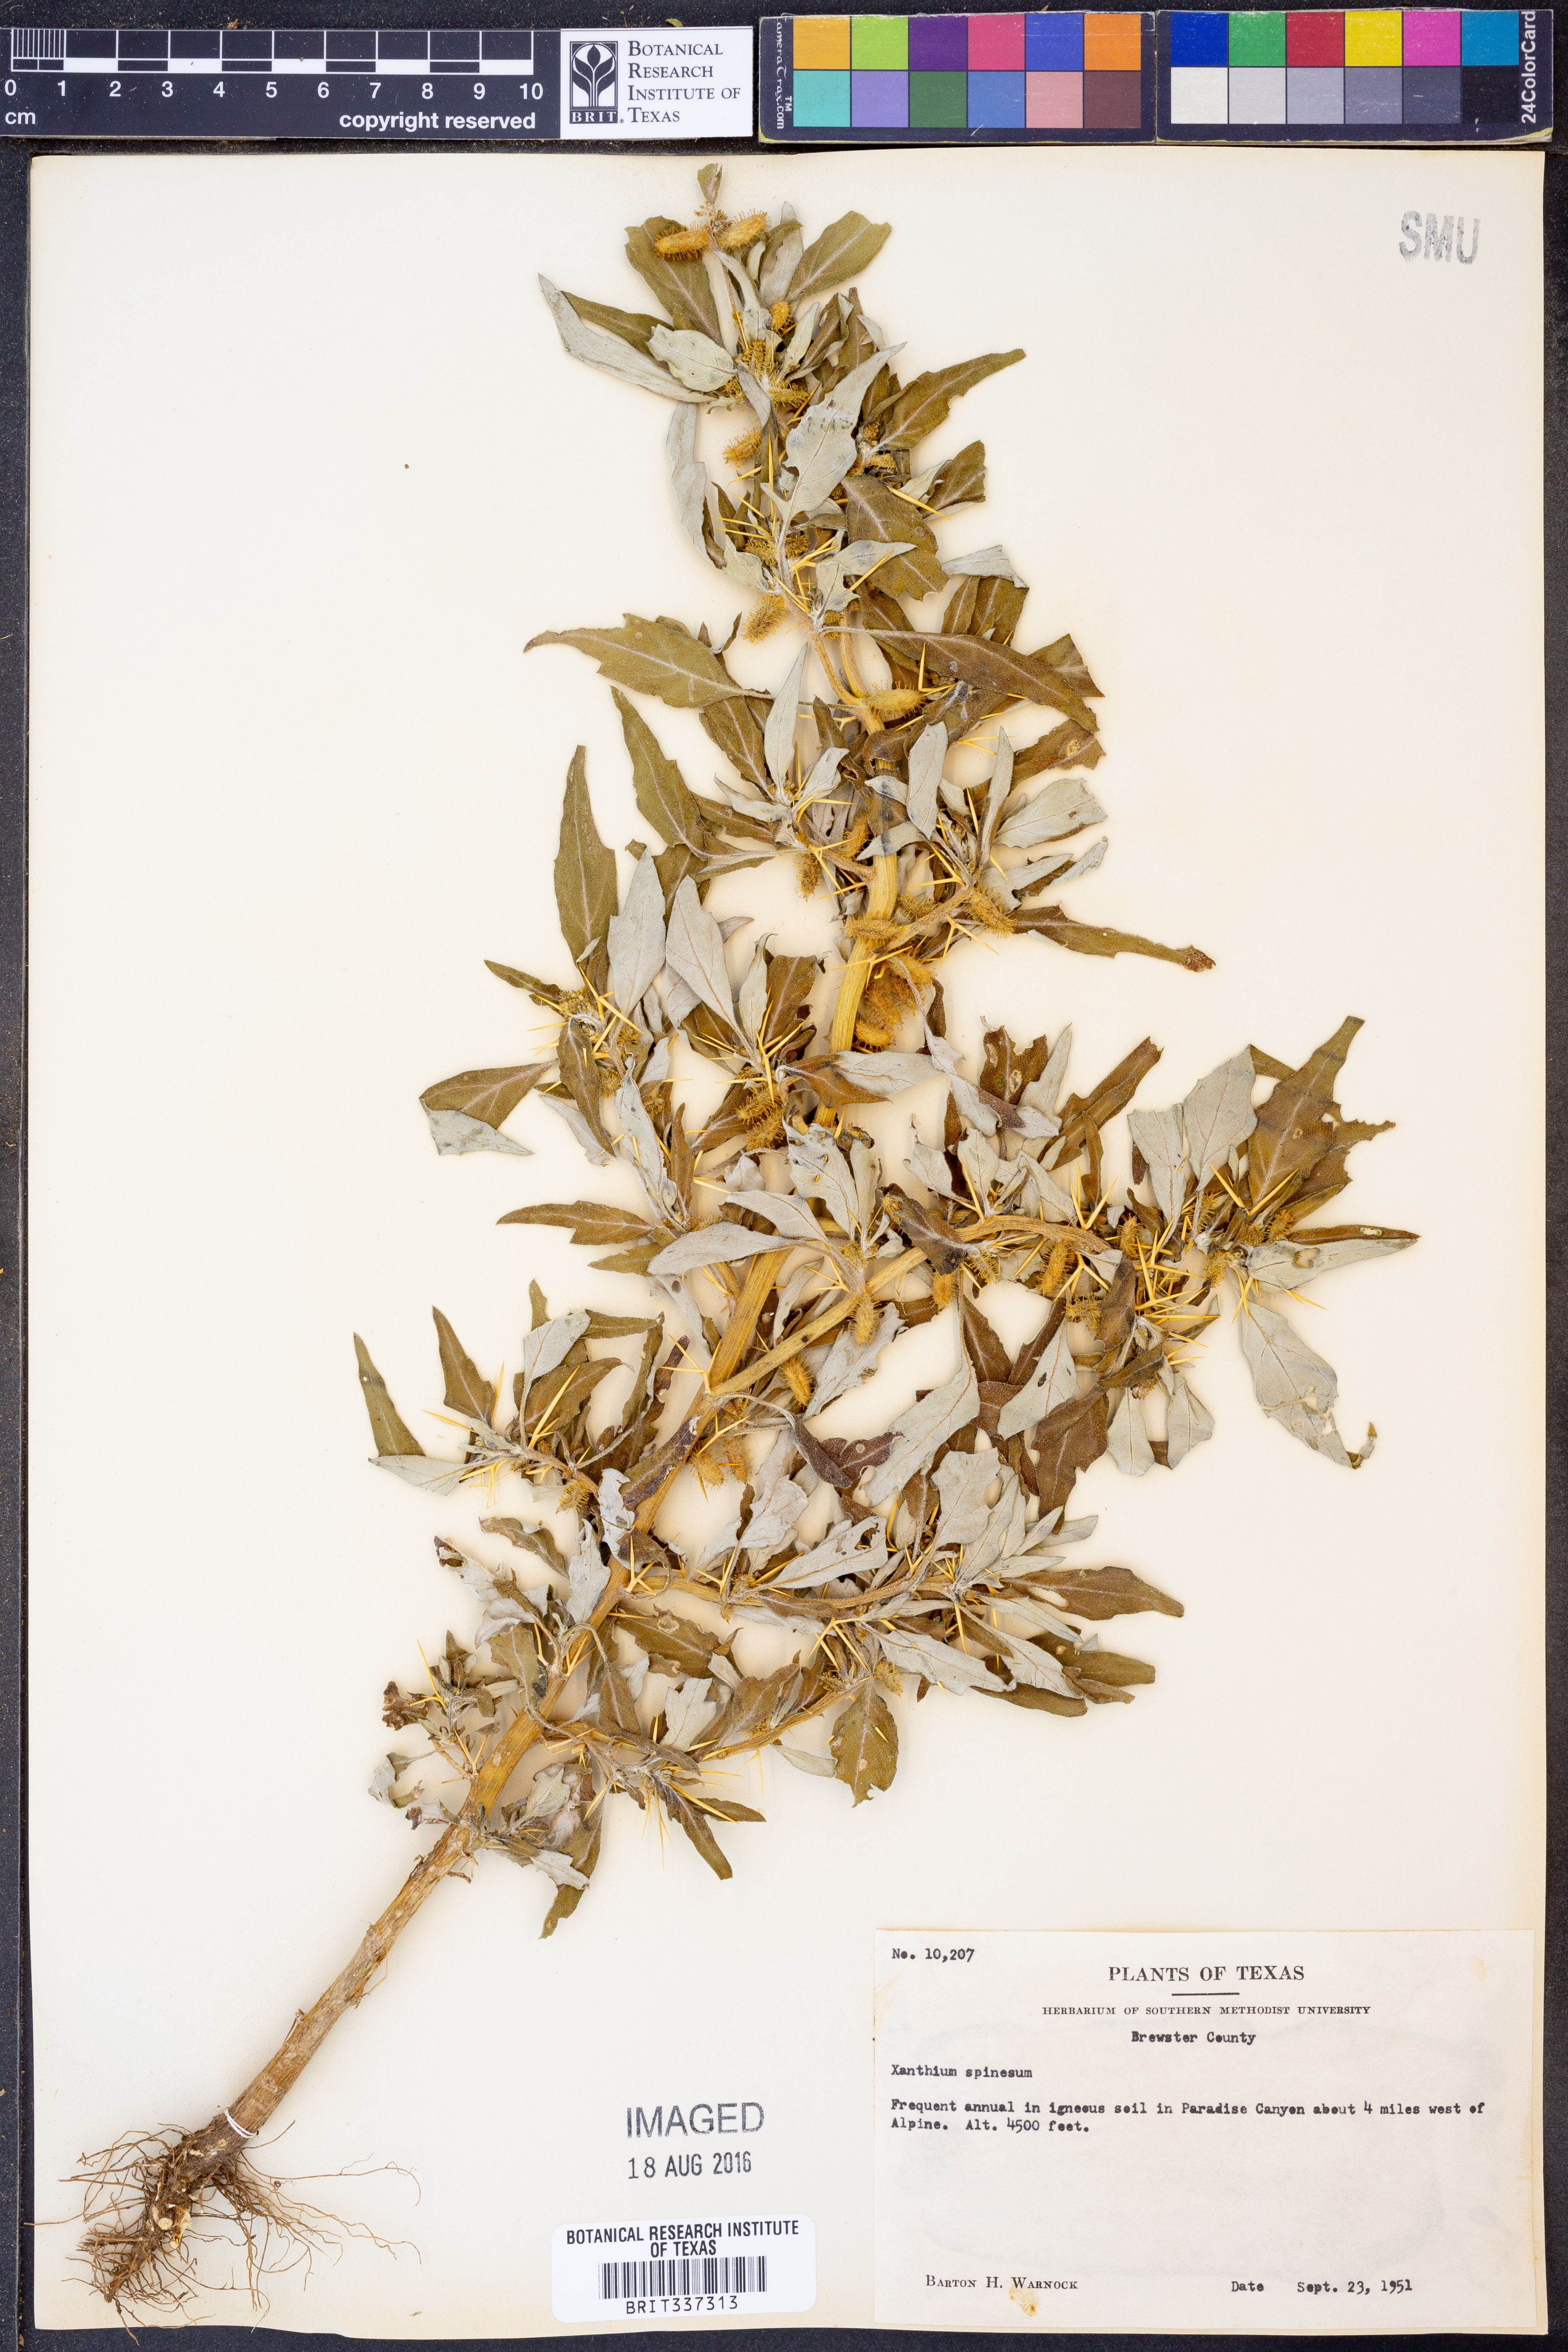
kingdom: Plantae
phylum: Tracheophyta
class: Magnoliopsida
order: Asterales
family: Asteraceae
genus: Xanthium
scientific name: Xanthium spinosum
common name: Spiny cocklebur
